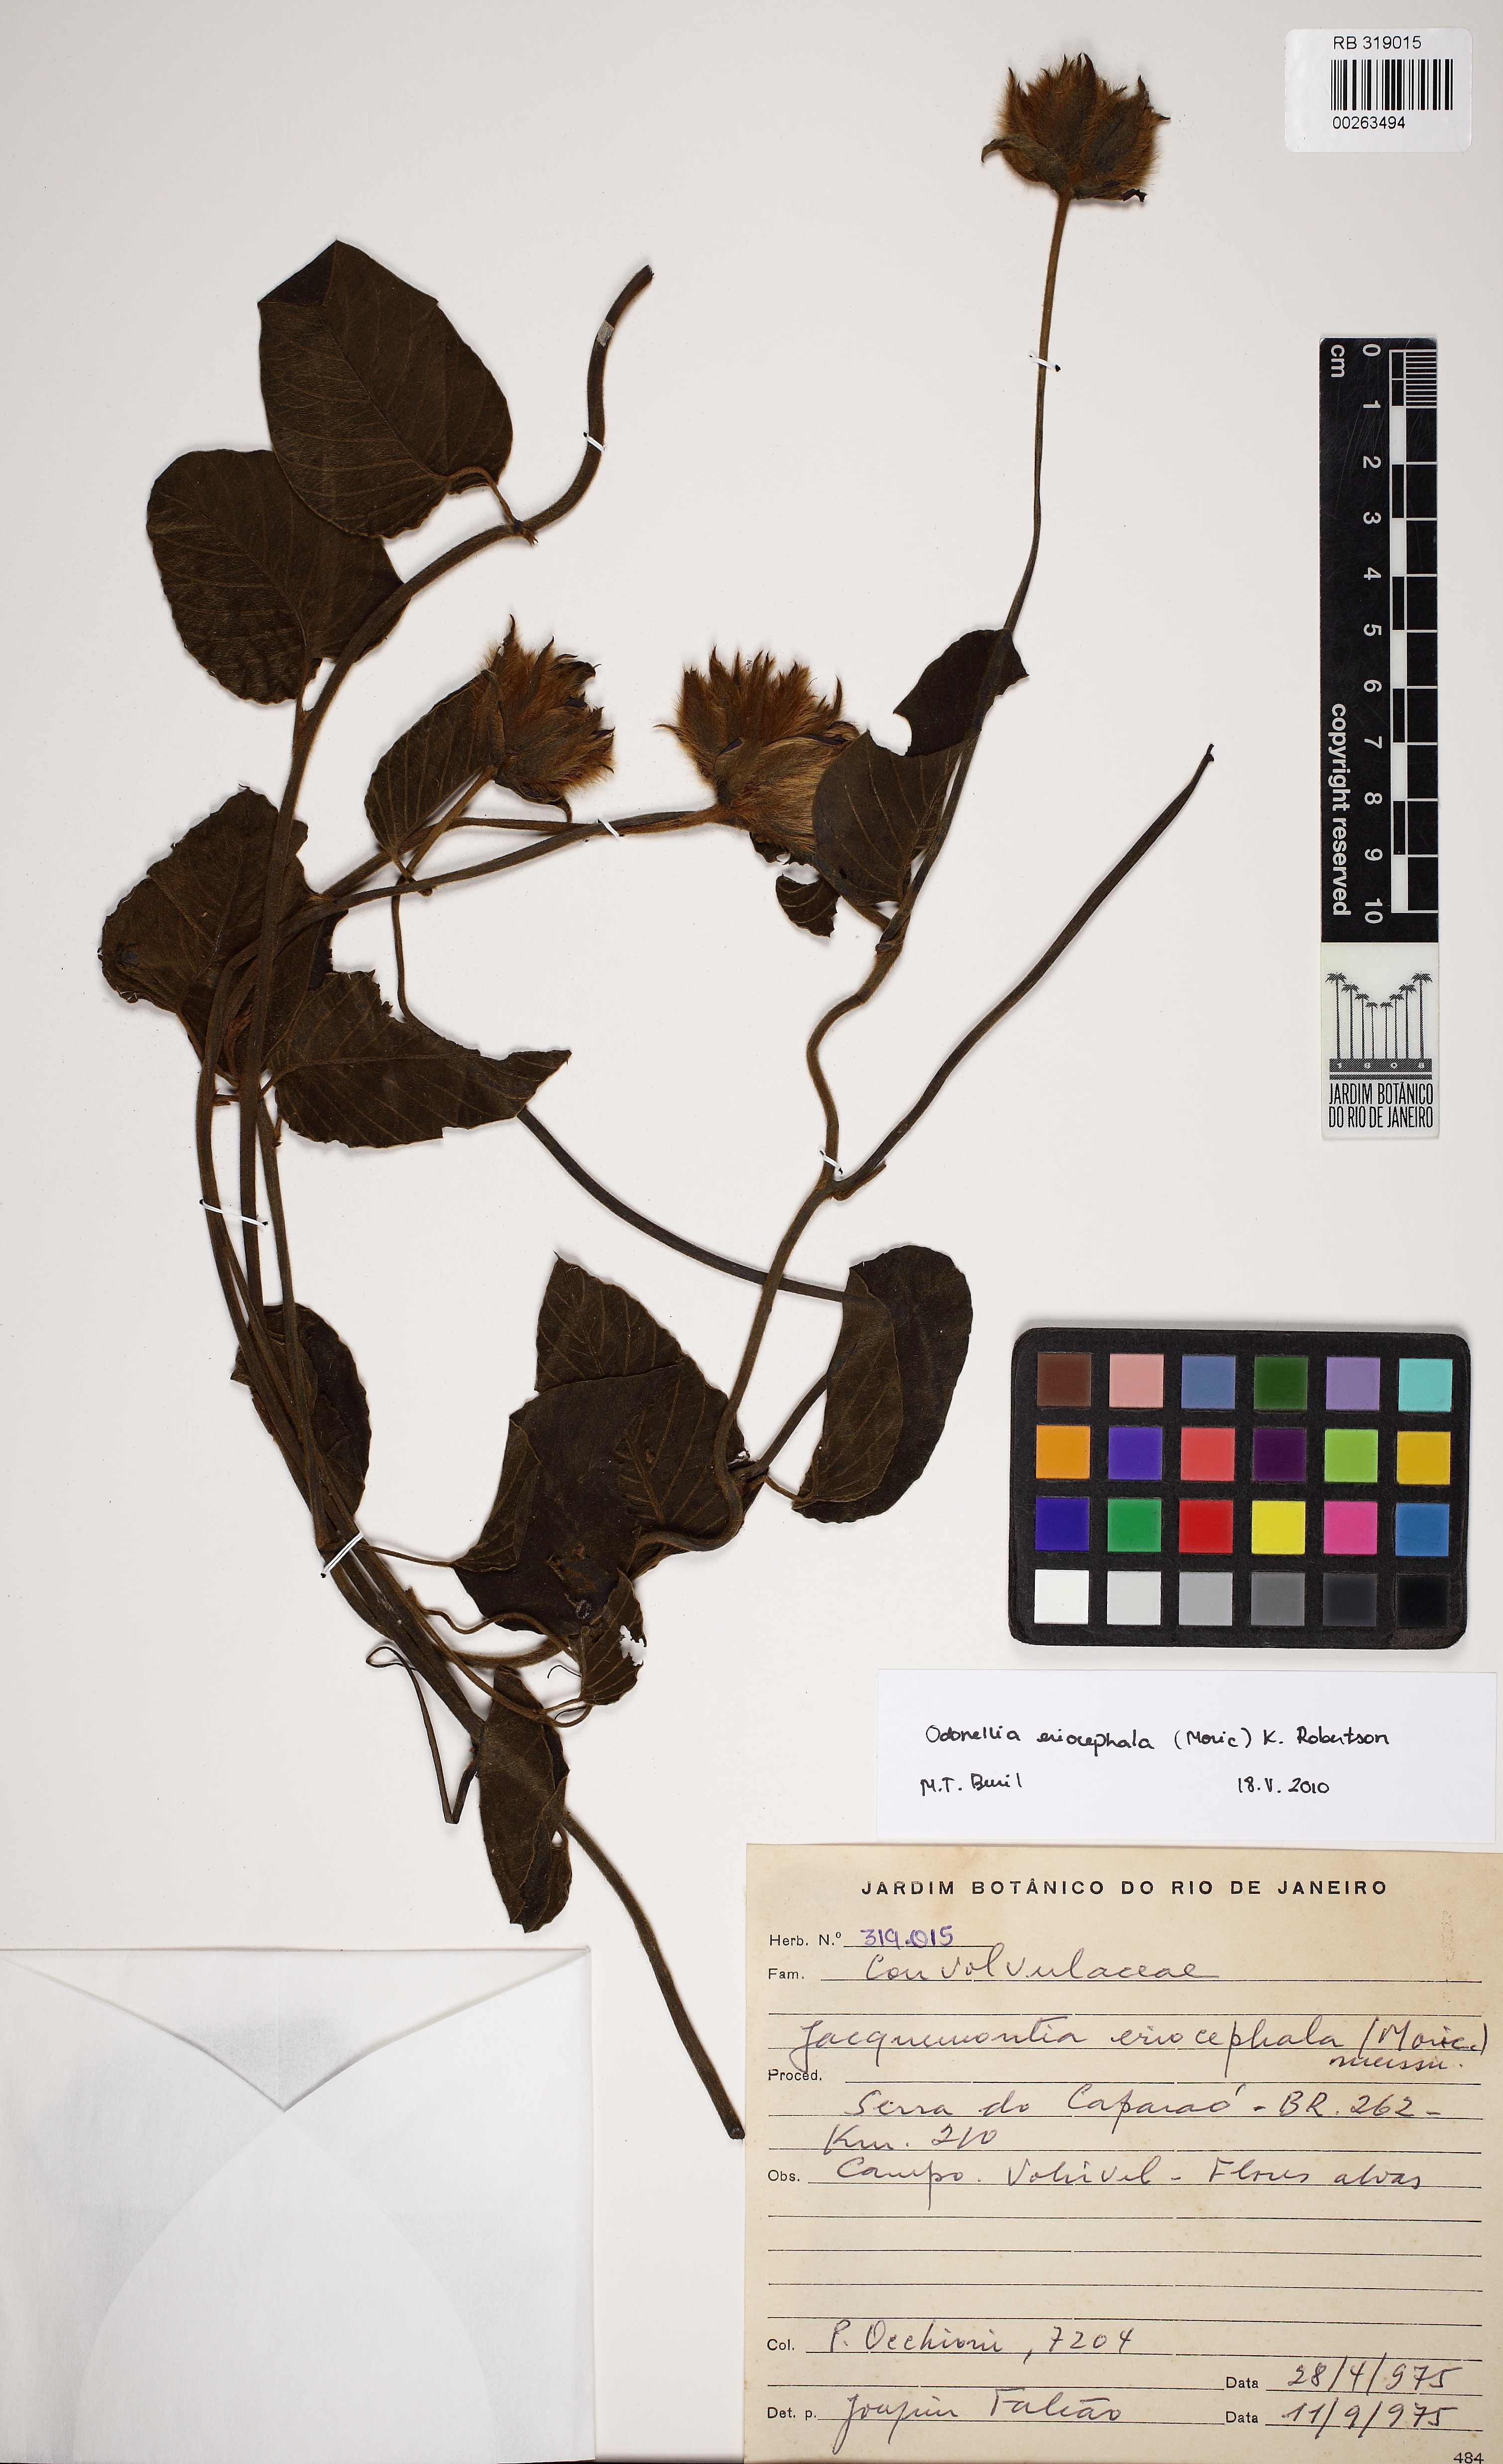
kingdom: Plantae
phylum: Tracheophyta
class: Magnoliopsida
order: Solanales
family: Convolvulaceae
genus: Odonellia
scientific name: Odonellia eriocephala
